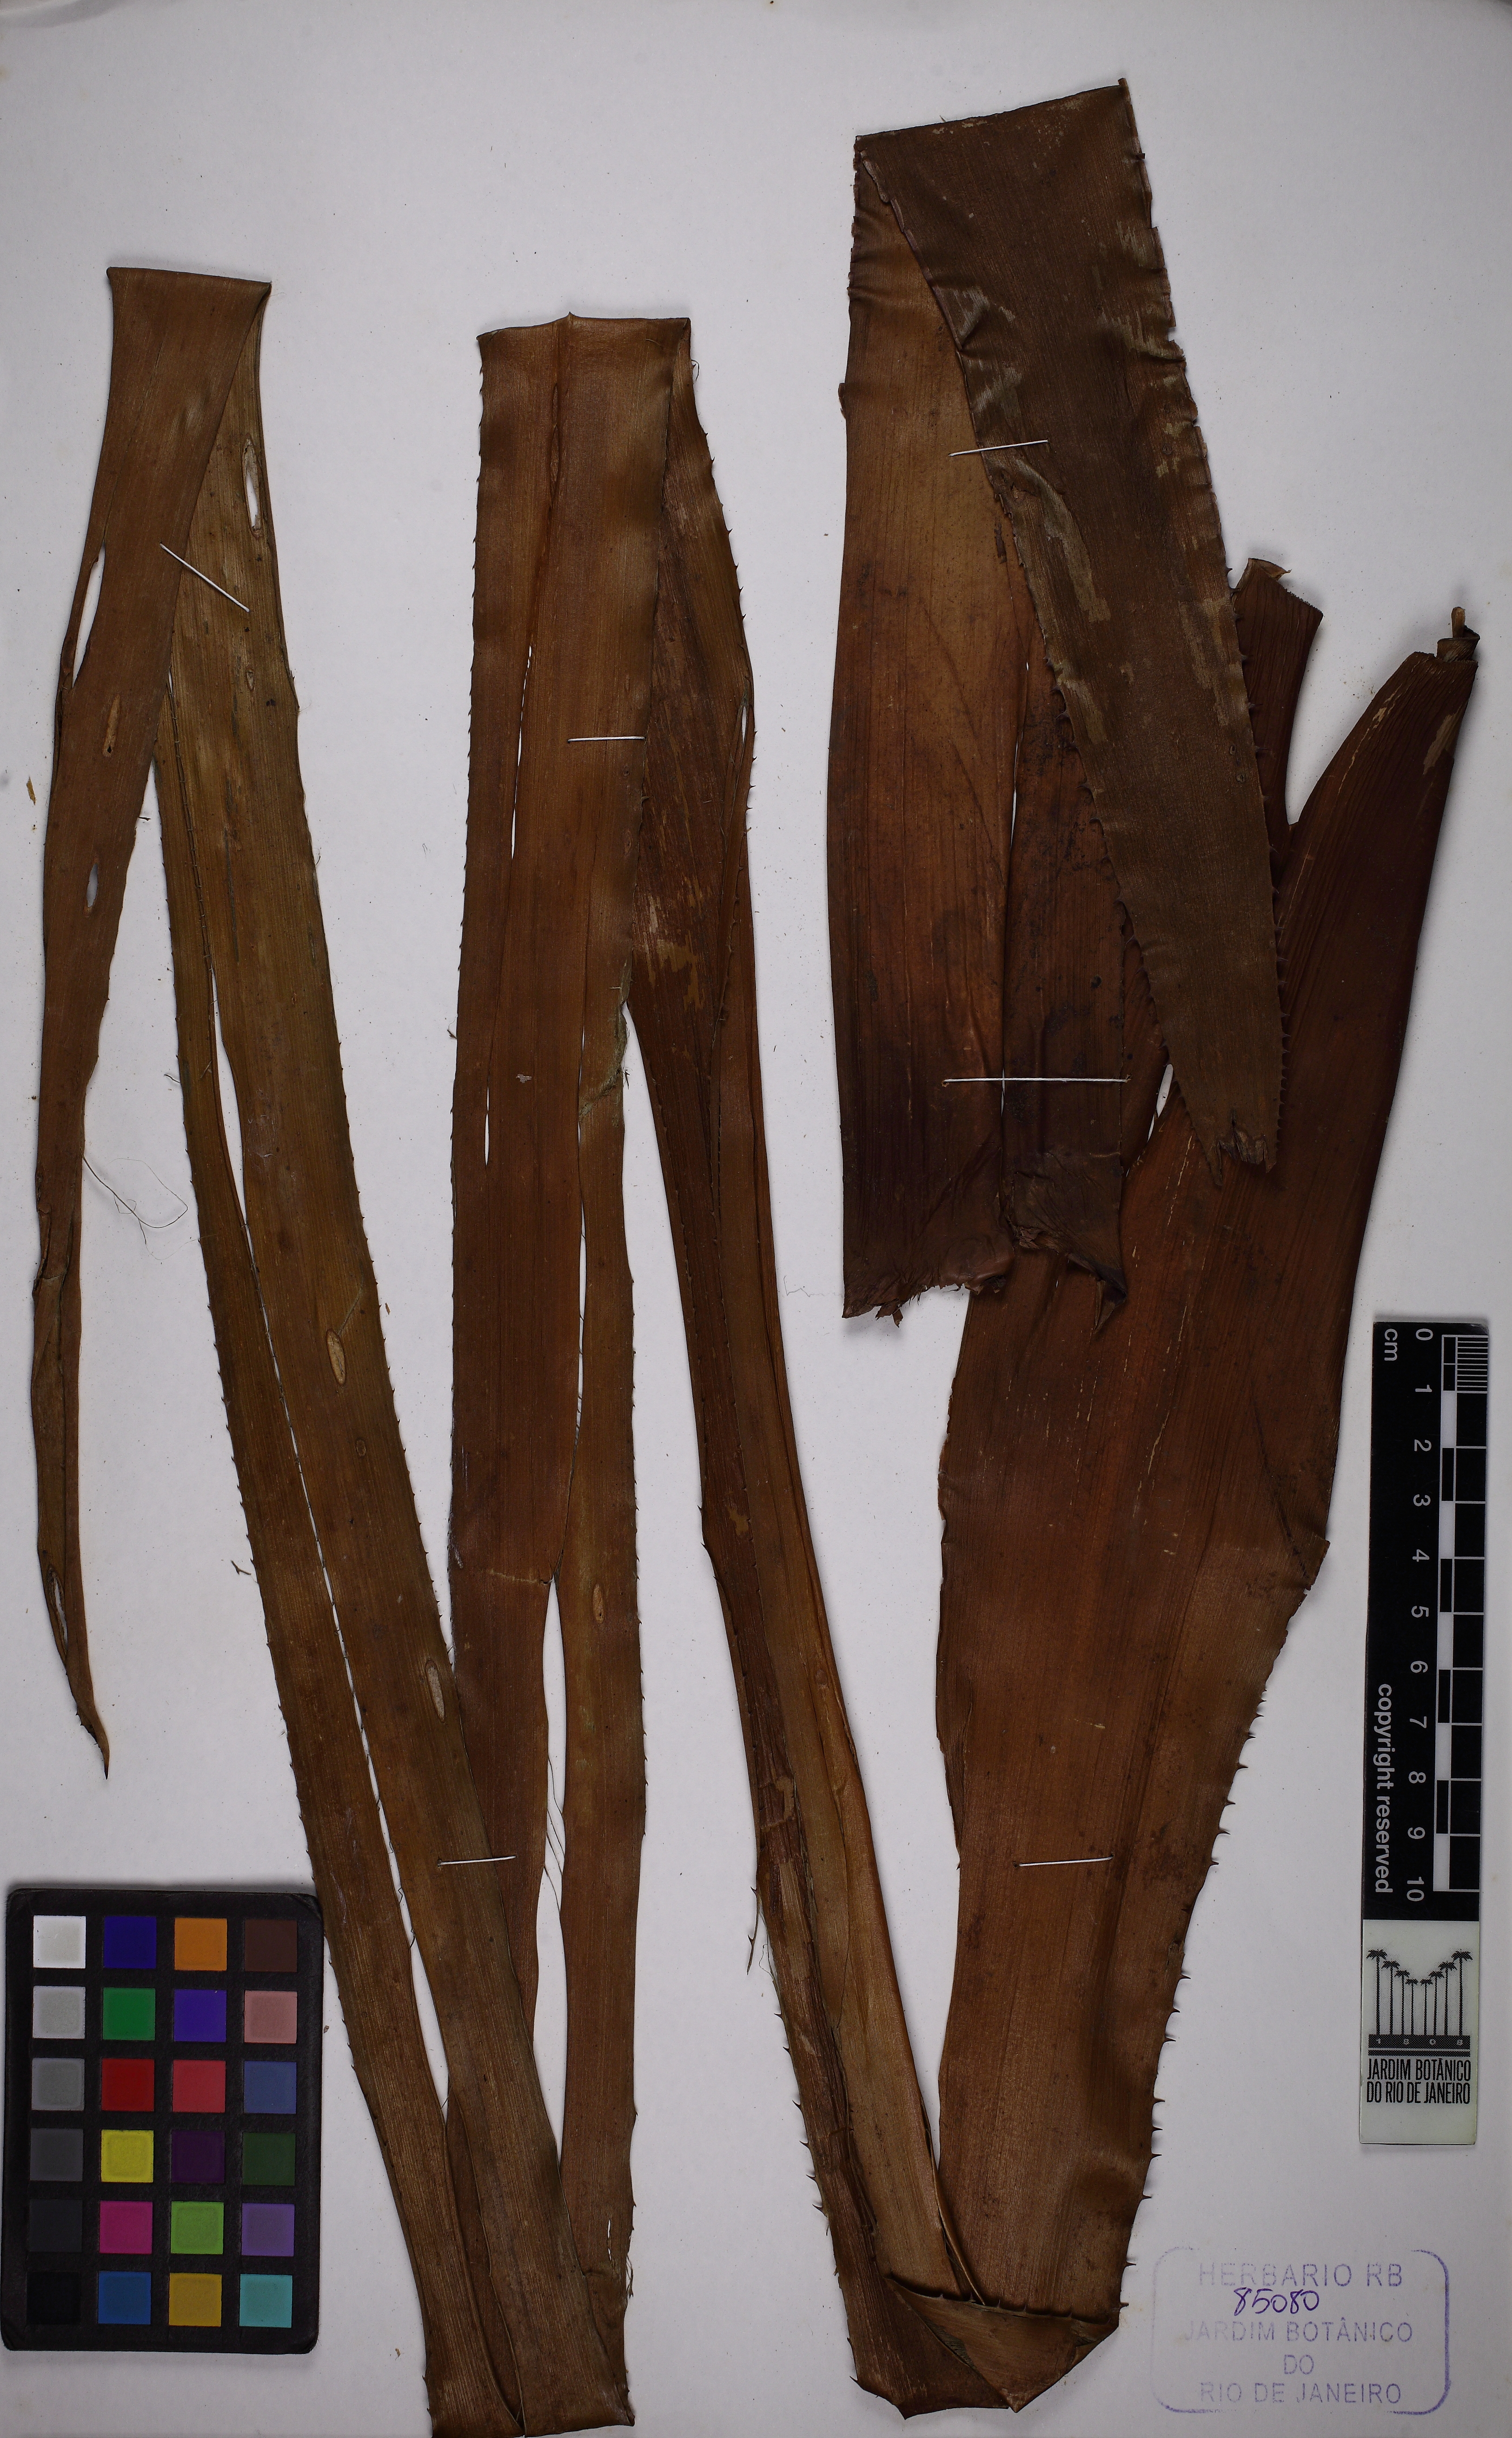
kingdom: Plantae
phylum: Tracheophyta
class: Liliopsida
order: Poales
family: Bromeliaceae
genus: Quesnelia
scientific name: Quesnelia quesneliana
